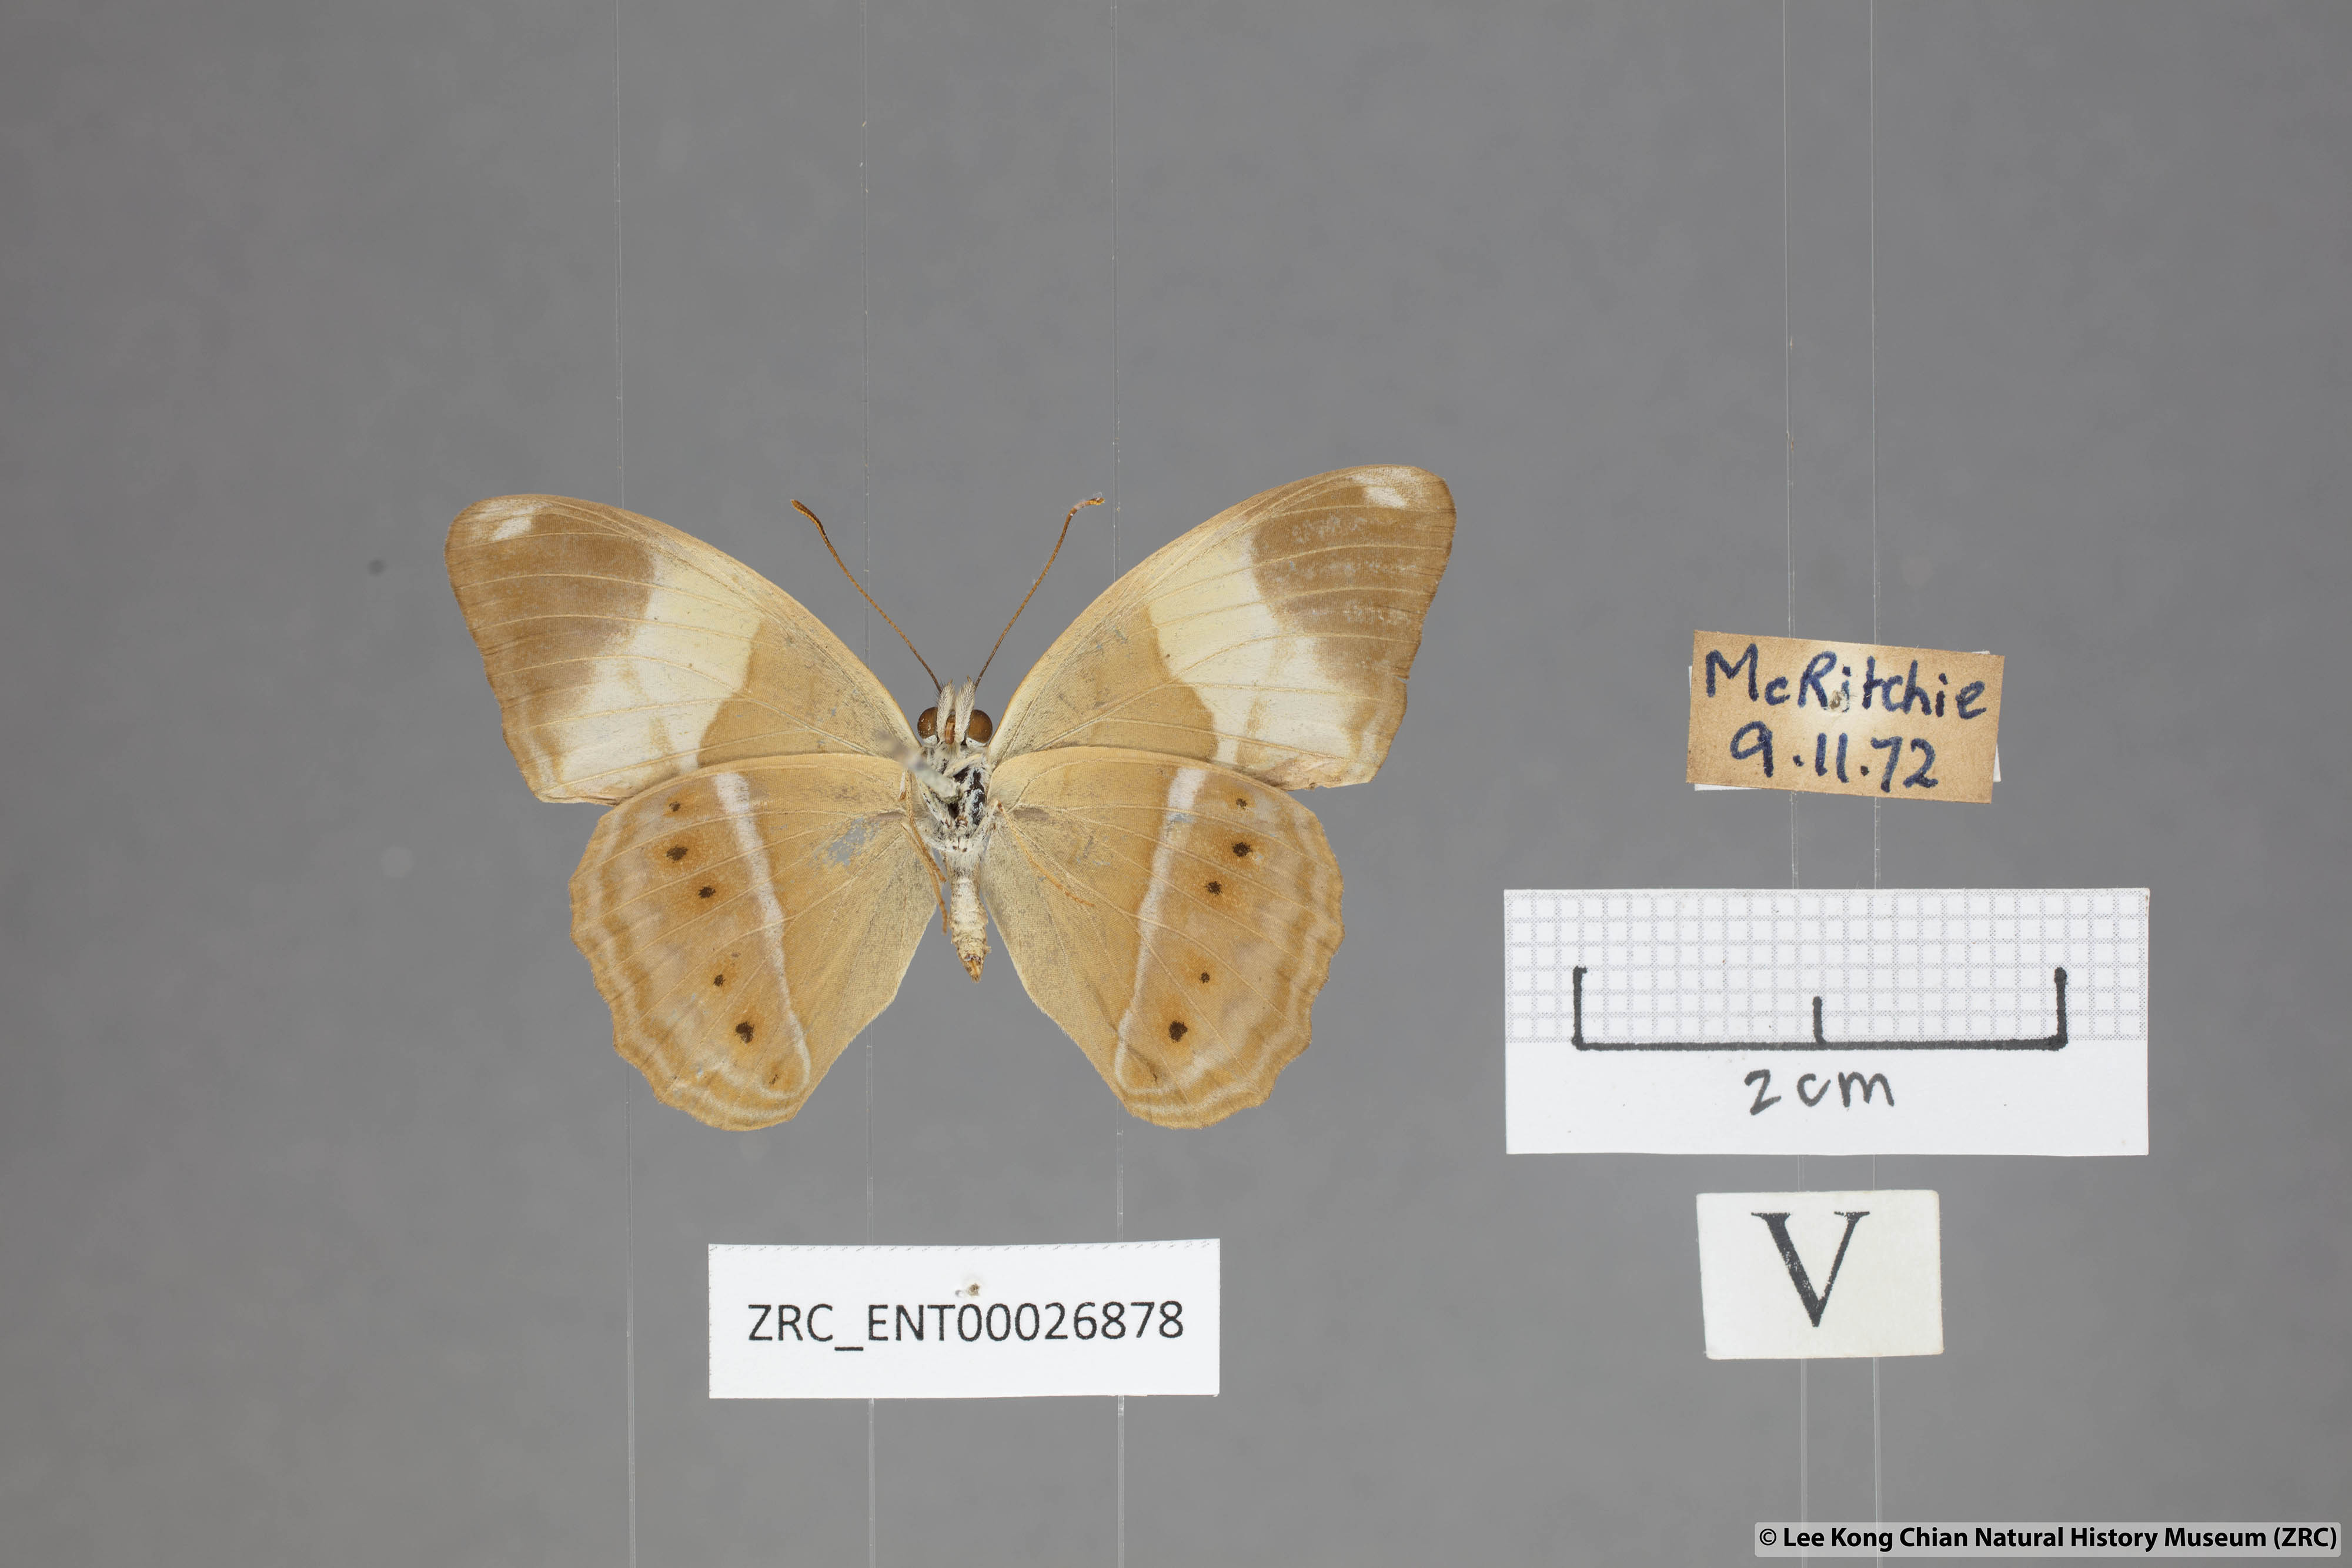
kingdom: Animalia
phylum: Arthropoda
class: Insecta
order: Lepidoptera
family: Nymphalidae
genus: Cirrochroa
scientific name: Cirrochroa orissa
